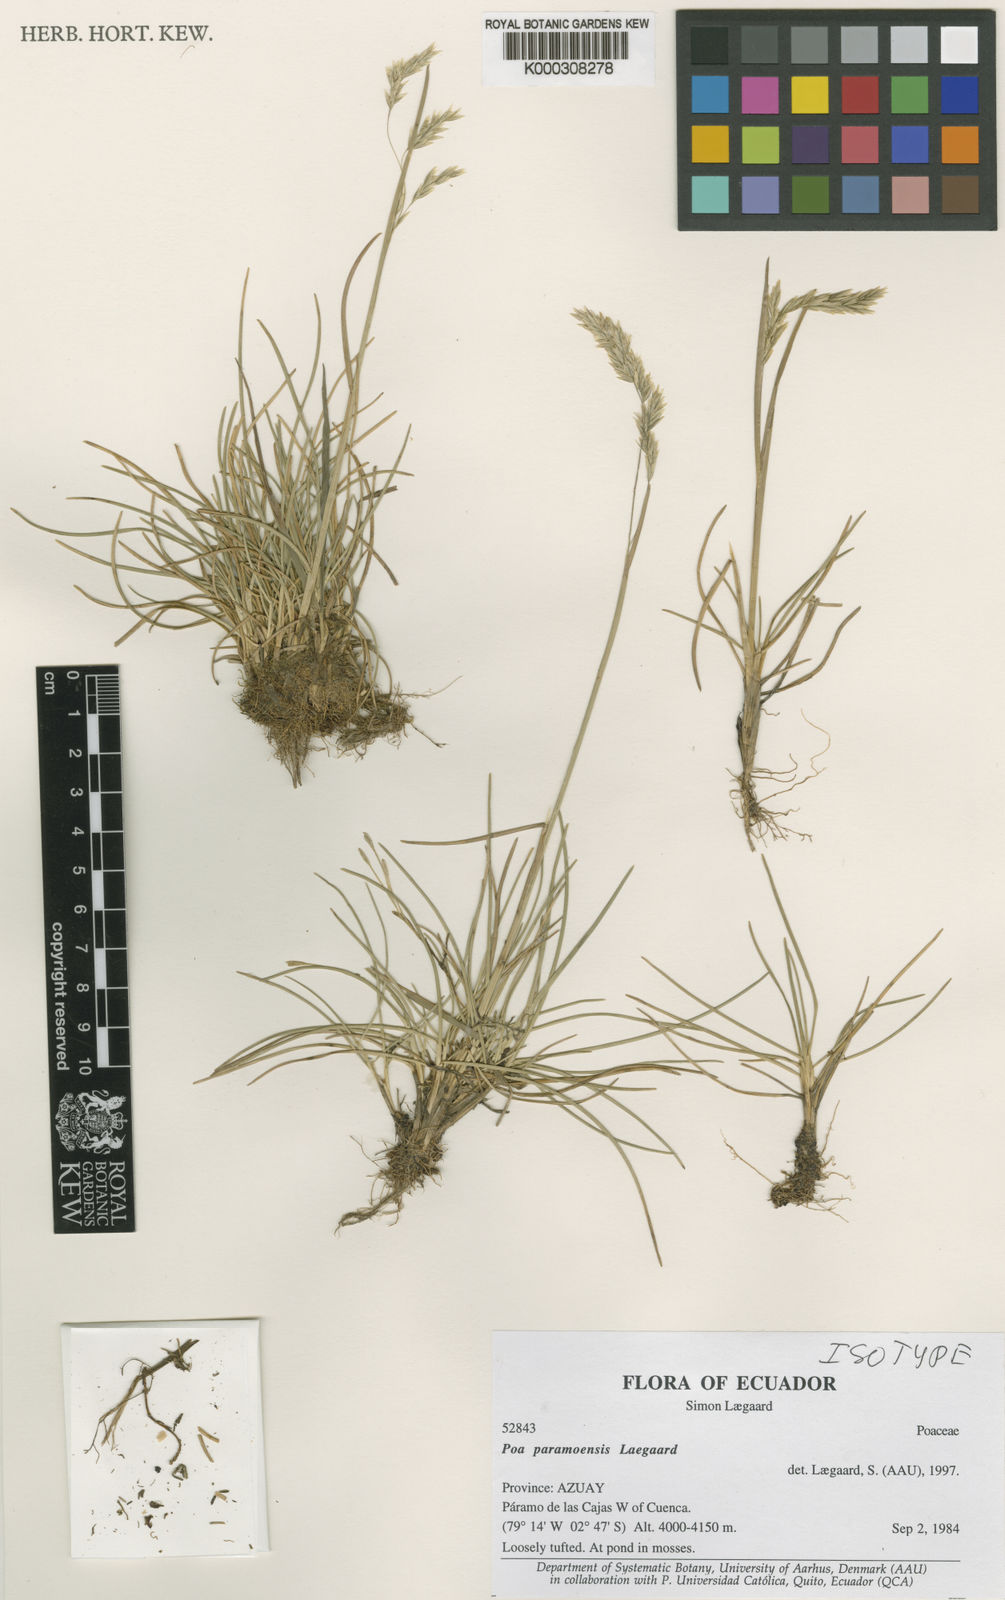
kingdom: Plantae
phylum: Tracheophyta
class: Liliopsida
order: Poales
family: Poaceae
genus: Poa
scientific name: Poa huancavelicae
